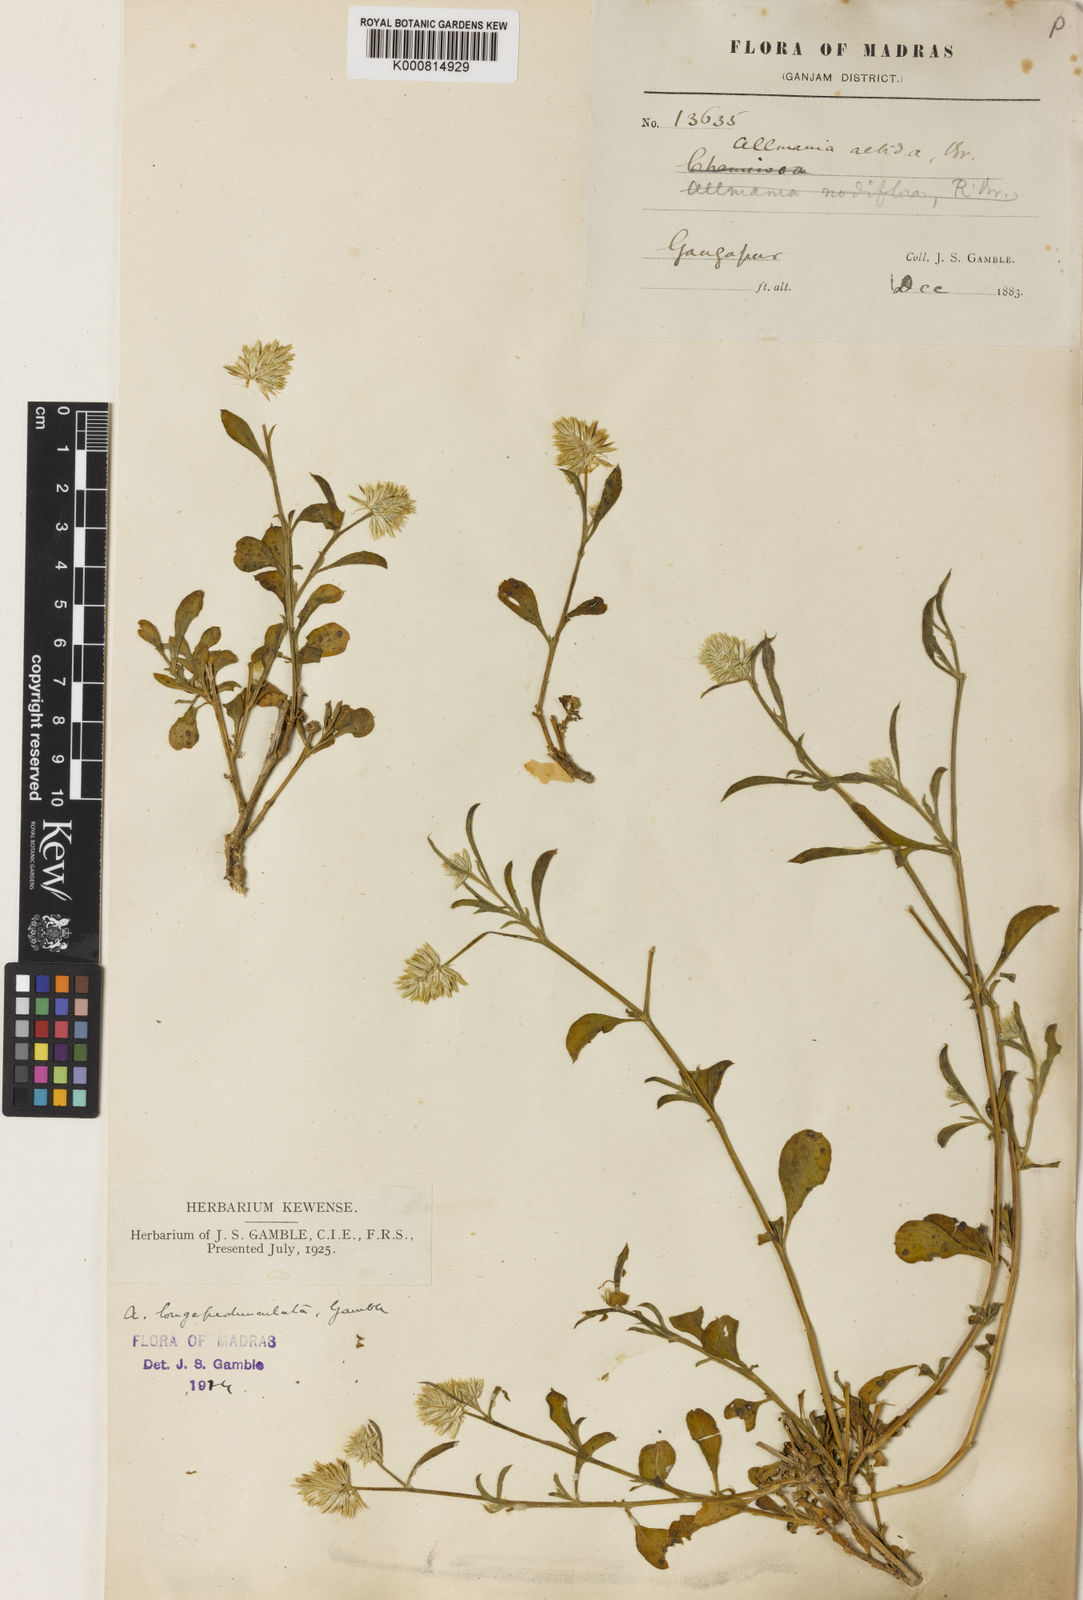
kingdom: Plantae
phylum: Tracheophyta
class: Magnoliopsida
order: Caryophyllales
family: Amaranthaceae
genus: Allmania
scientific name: Allmania nodiflora
